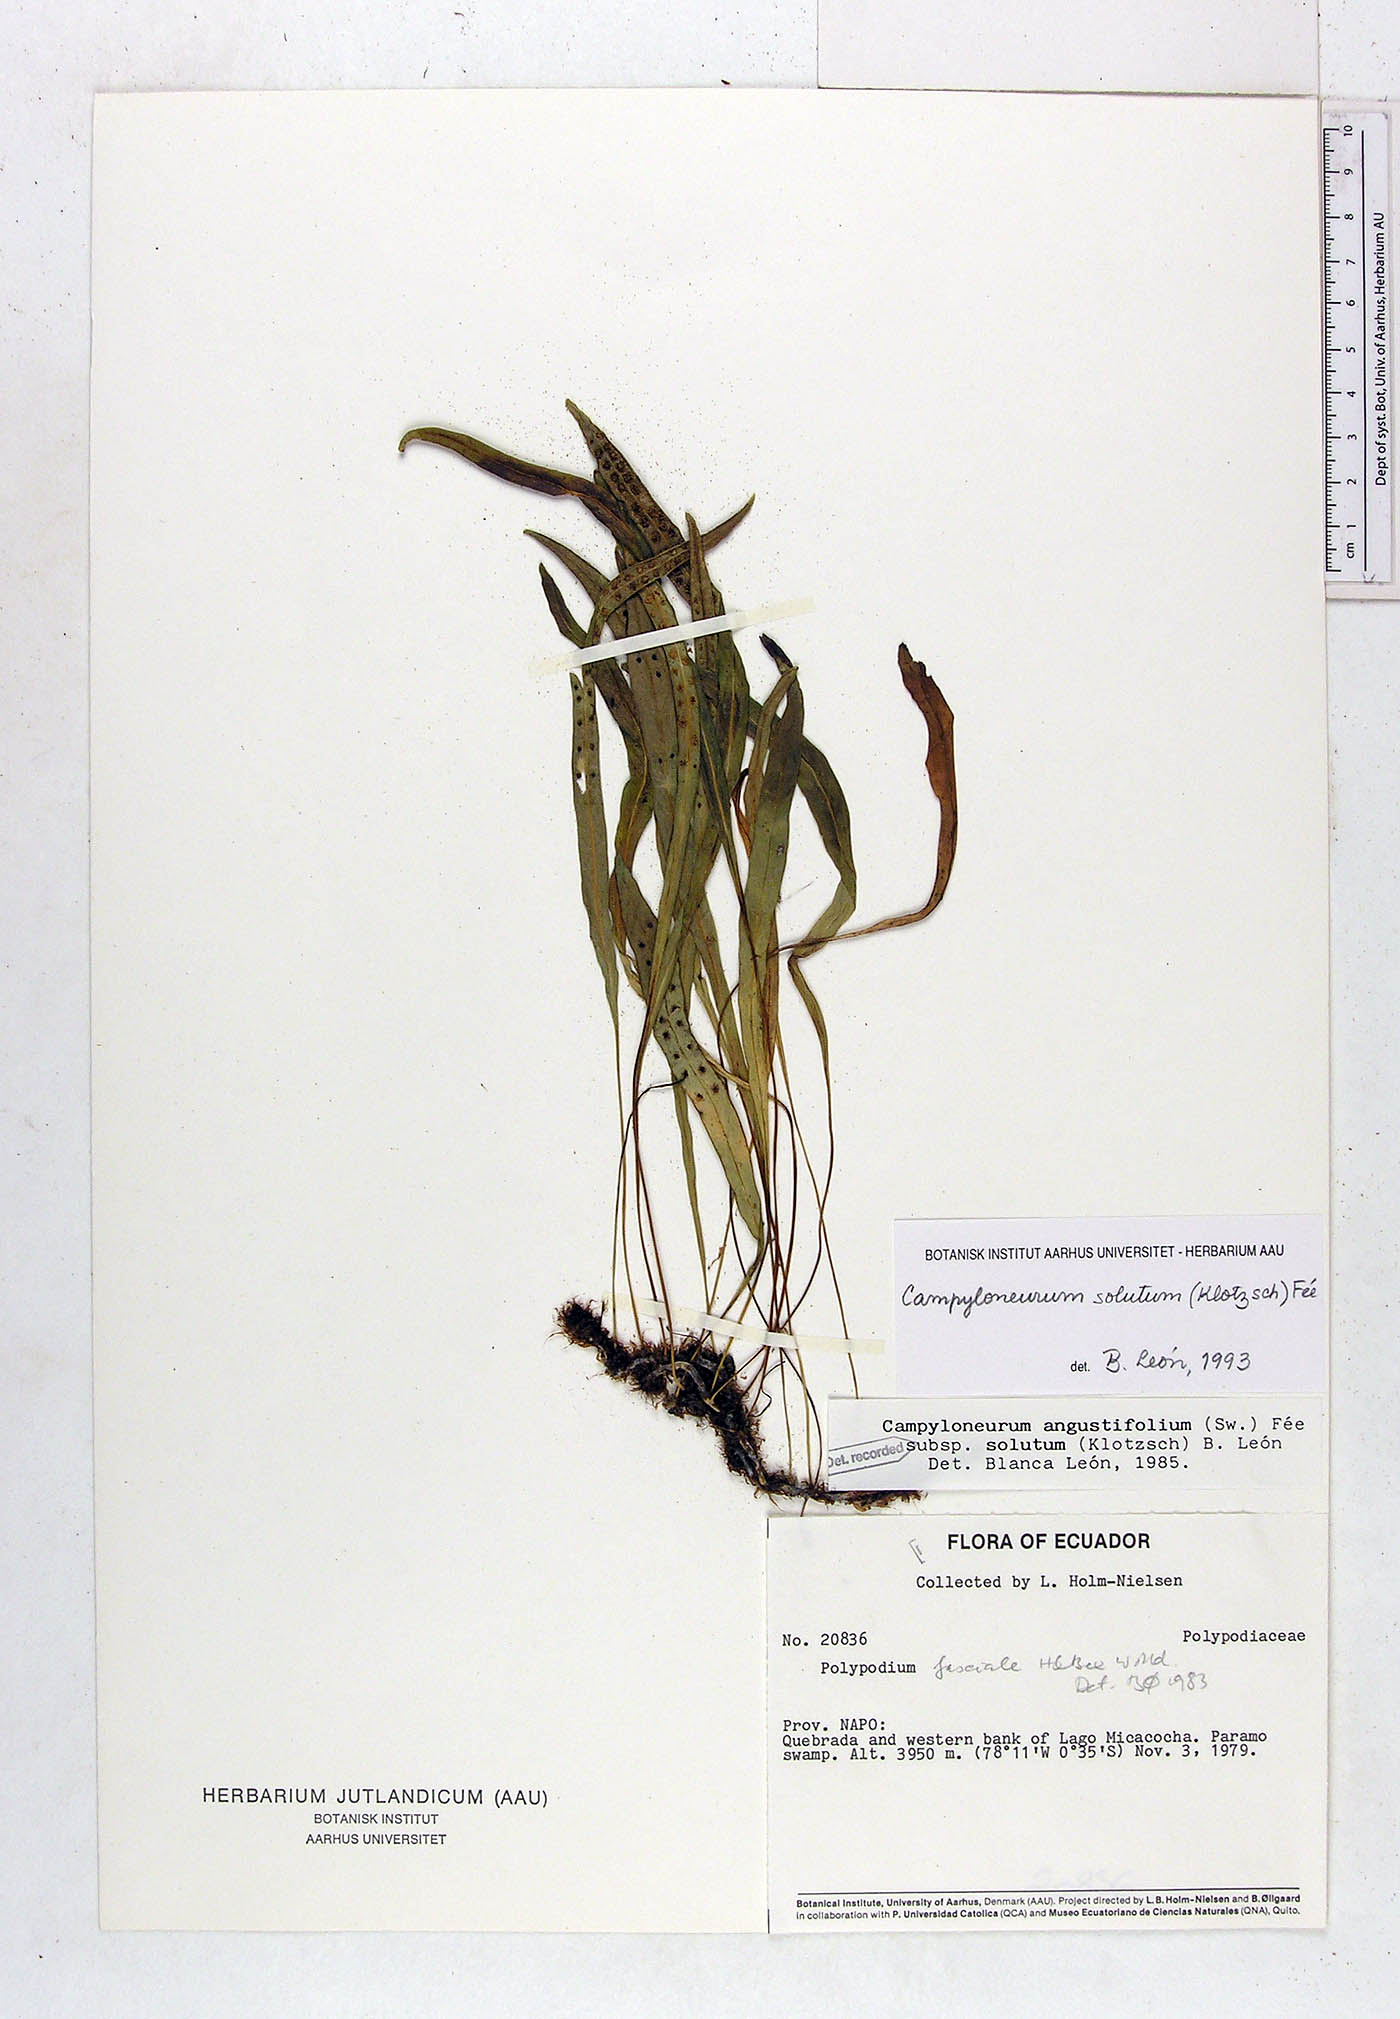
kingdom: Plantae
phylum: Tracheophyta
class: Polypodiopsida
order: Polypodiales
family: Polypodiaceae
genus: Campyloneurum
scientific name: Campyloneurum solutum
